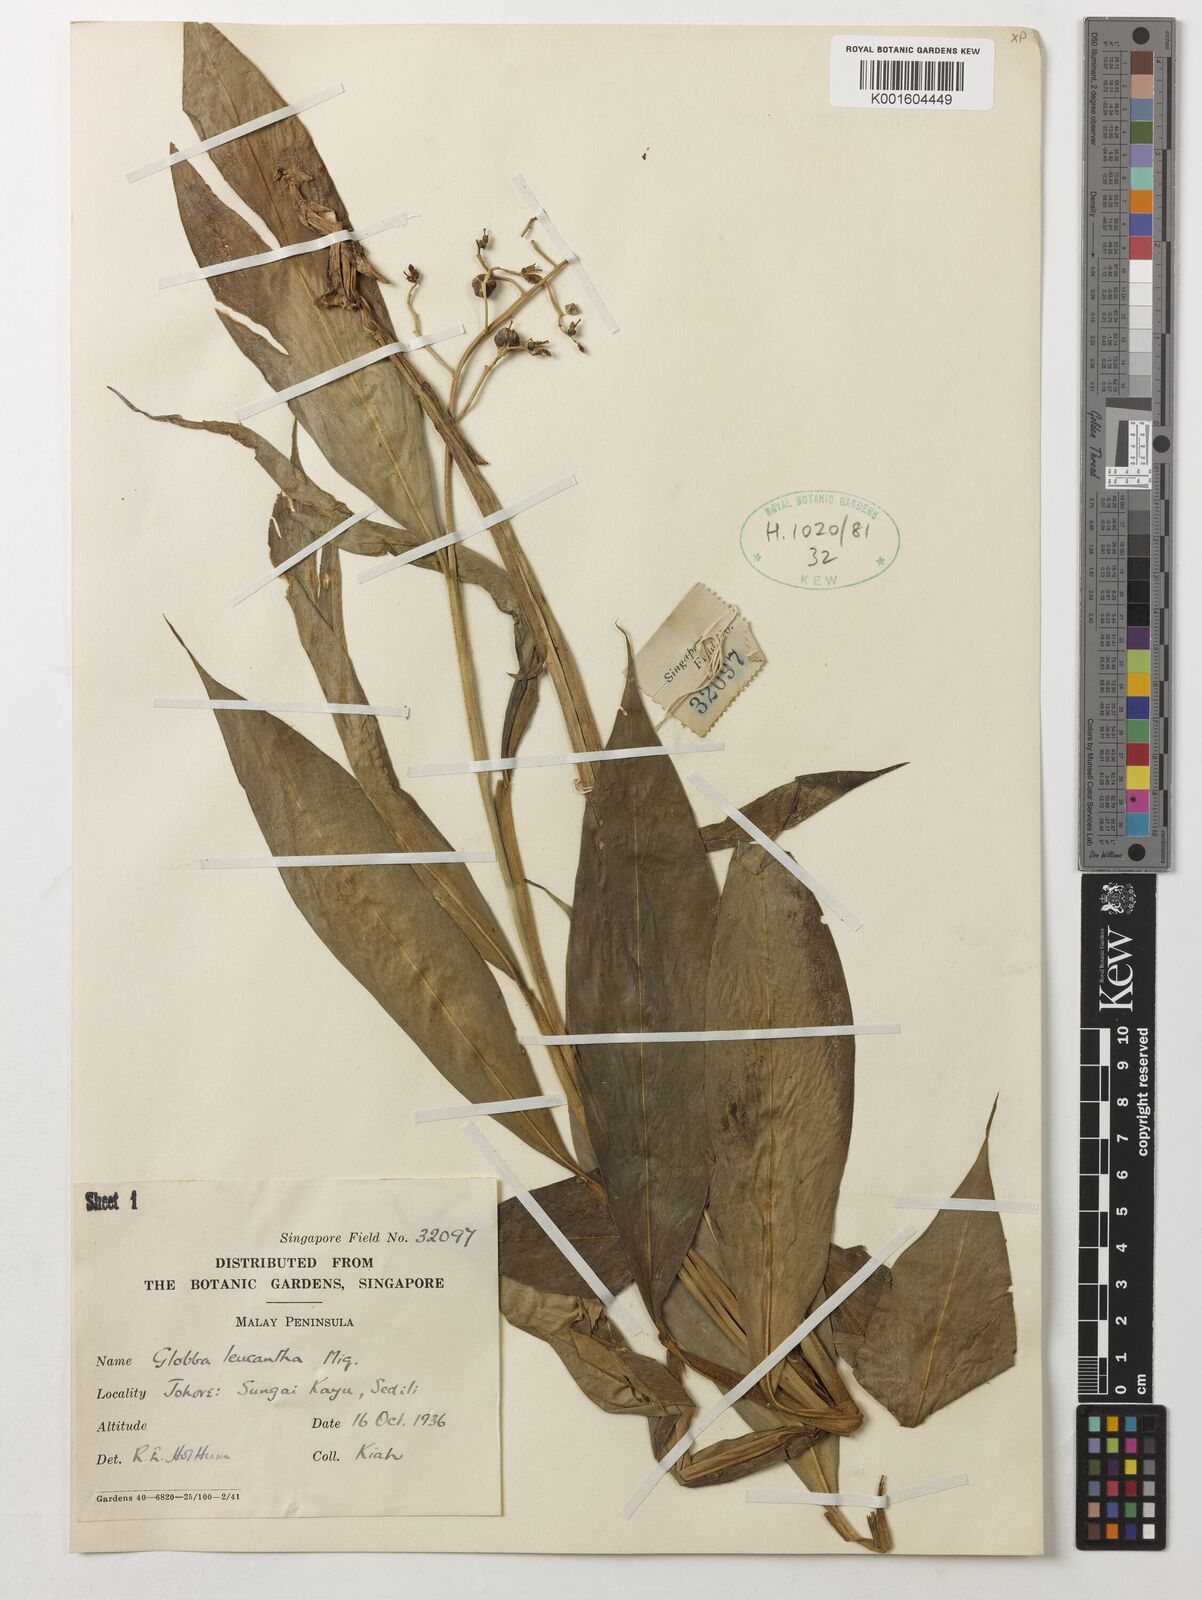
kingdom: Plantae
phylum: Tracheophyta
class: Liliopsida
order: Zingiberales
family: Zingiberaceae
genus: Globba
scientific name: Globba leucantha
